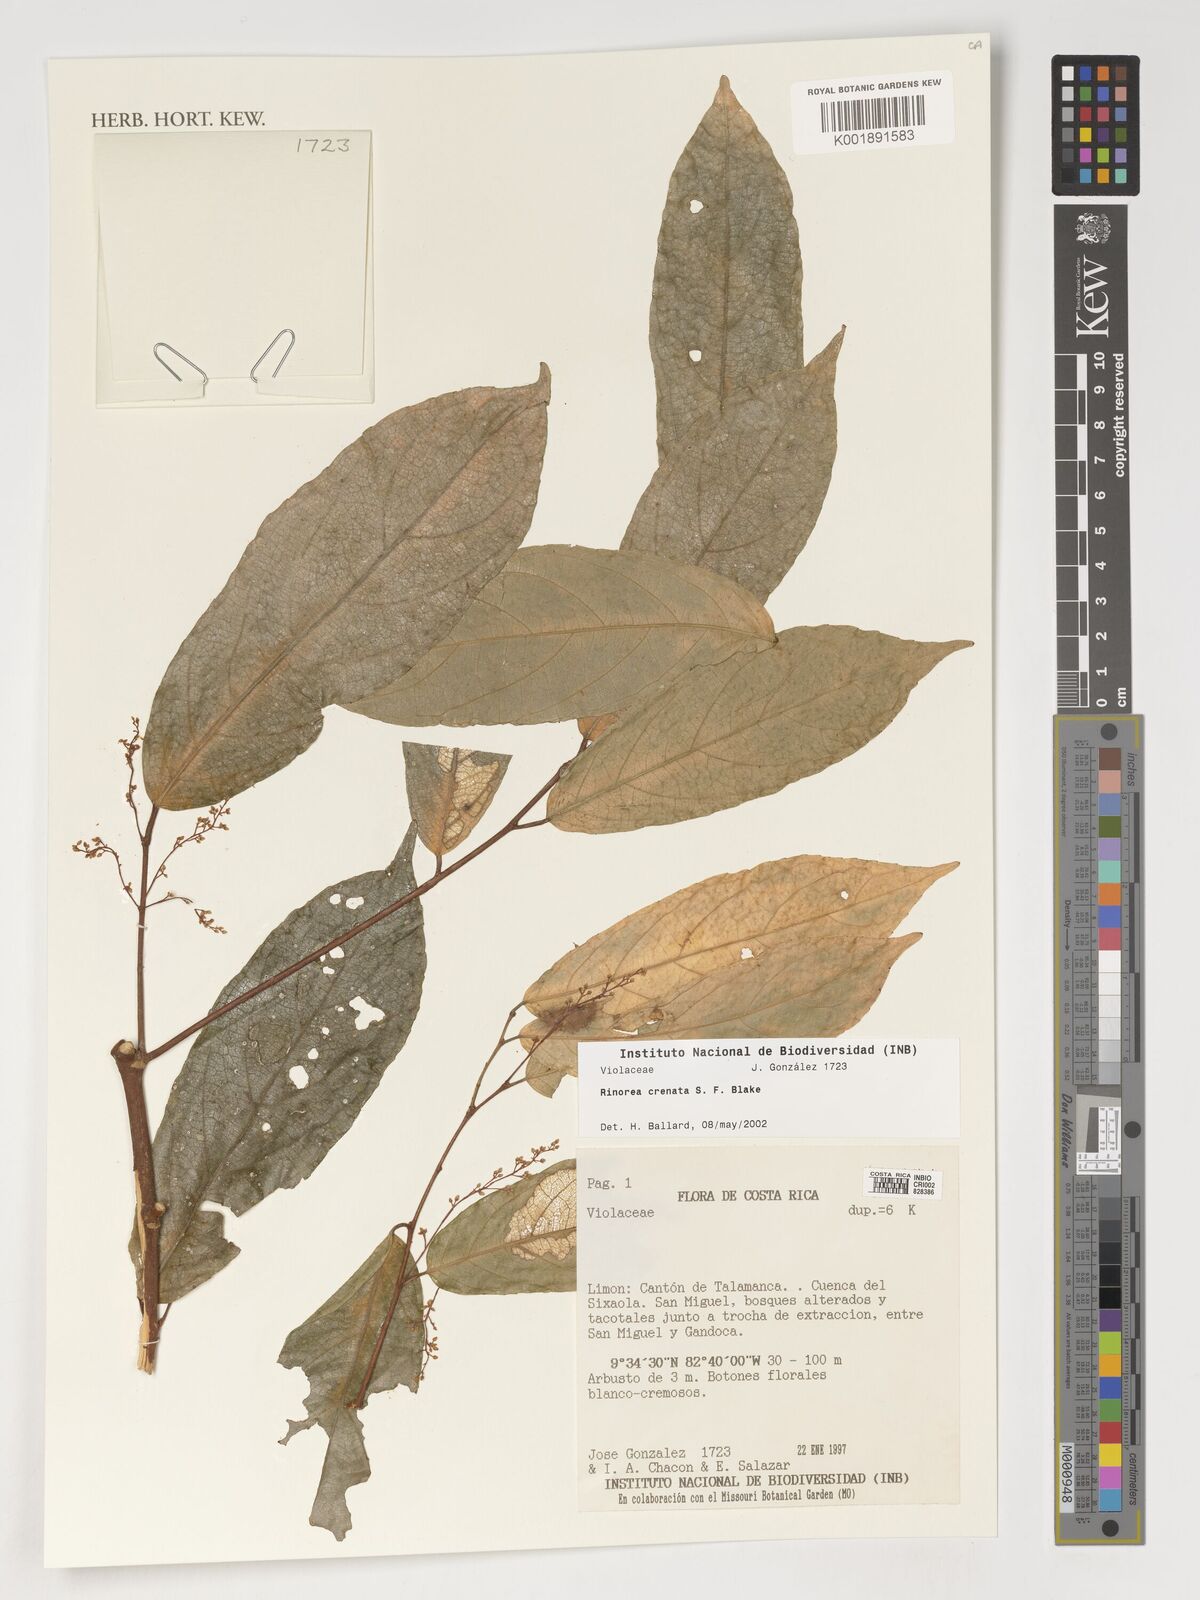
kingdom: Plantae
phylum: Tracheophyta
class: Magnoliopsida
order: Malpighiales
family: Violaceae
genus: Bribria
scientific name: Bribria crenata
